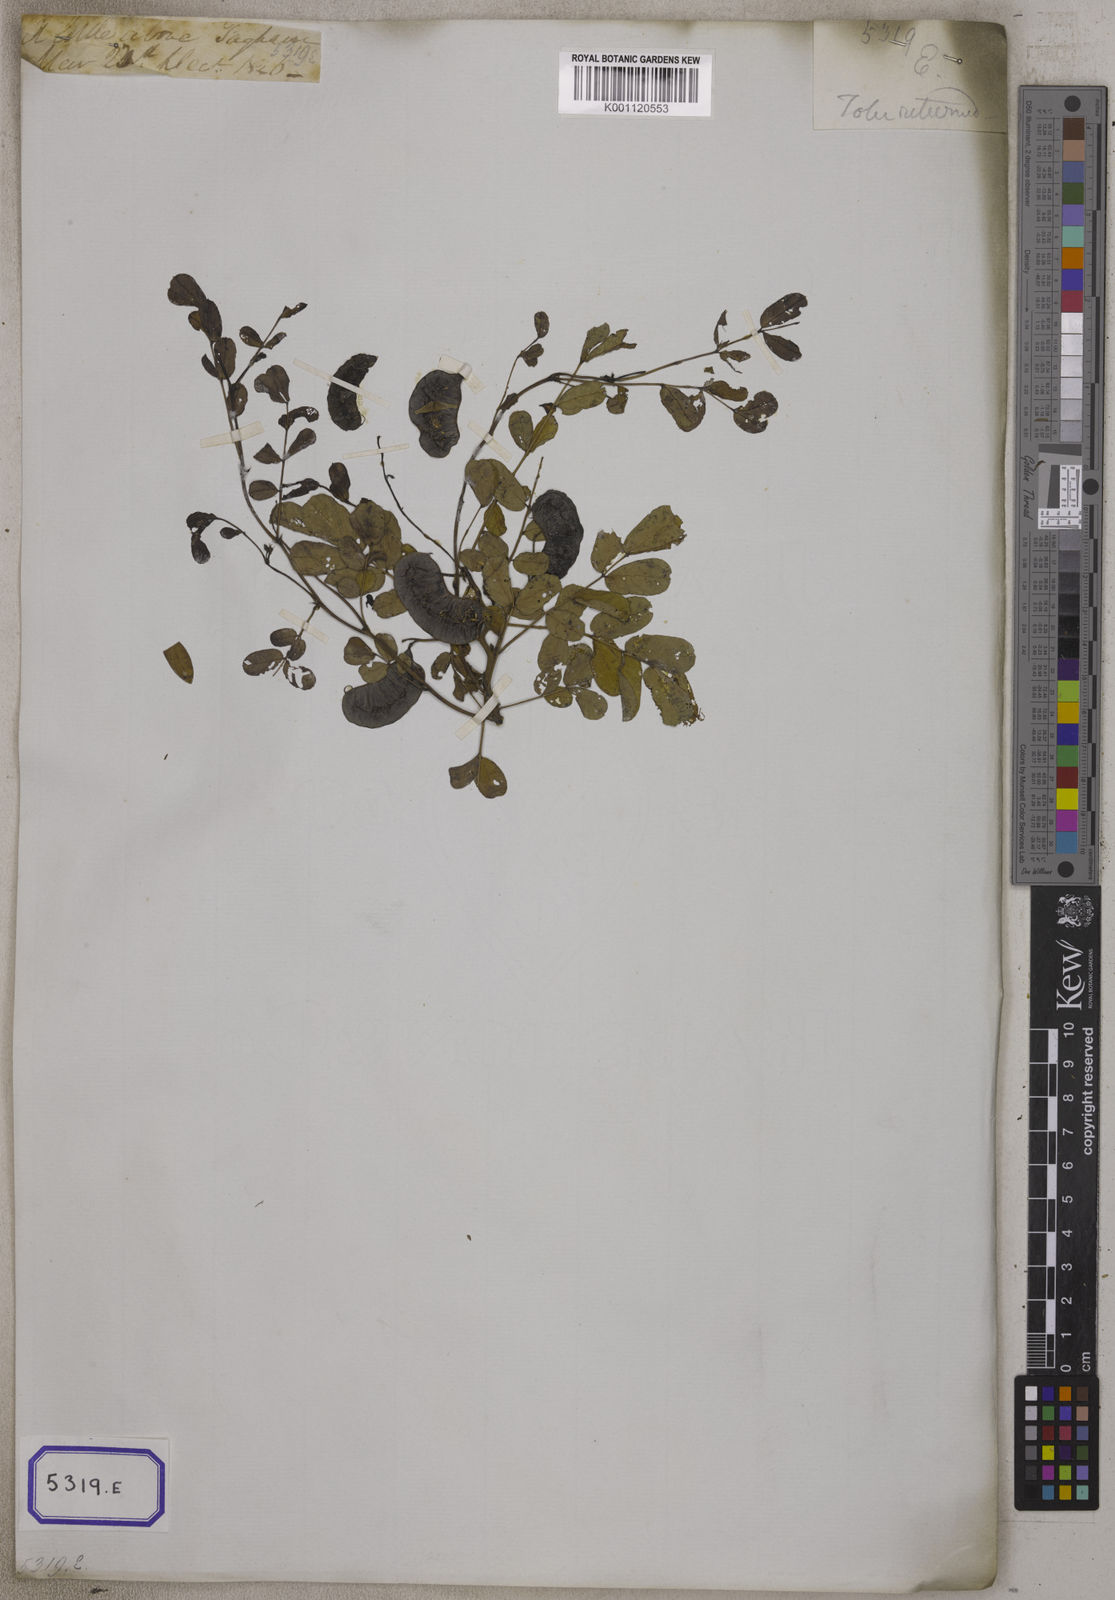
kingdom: Plantae
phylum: Tracheophyta
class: Magnoliopsida
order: Fabales
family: Fabaceae
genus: Senna
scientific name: Senna italica
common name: Port royal senna
